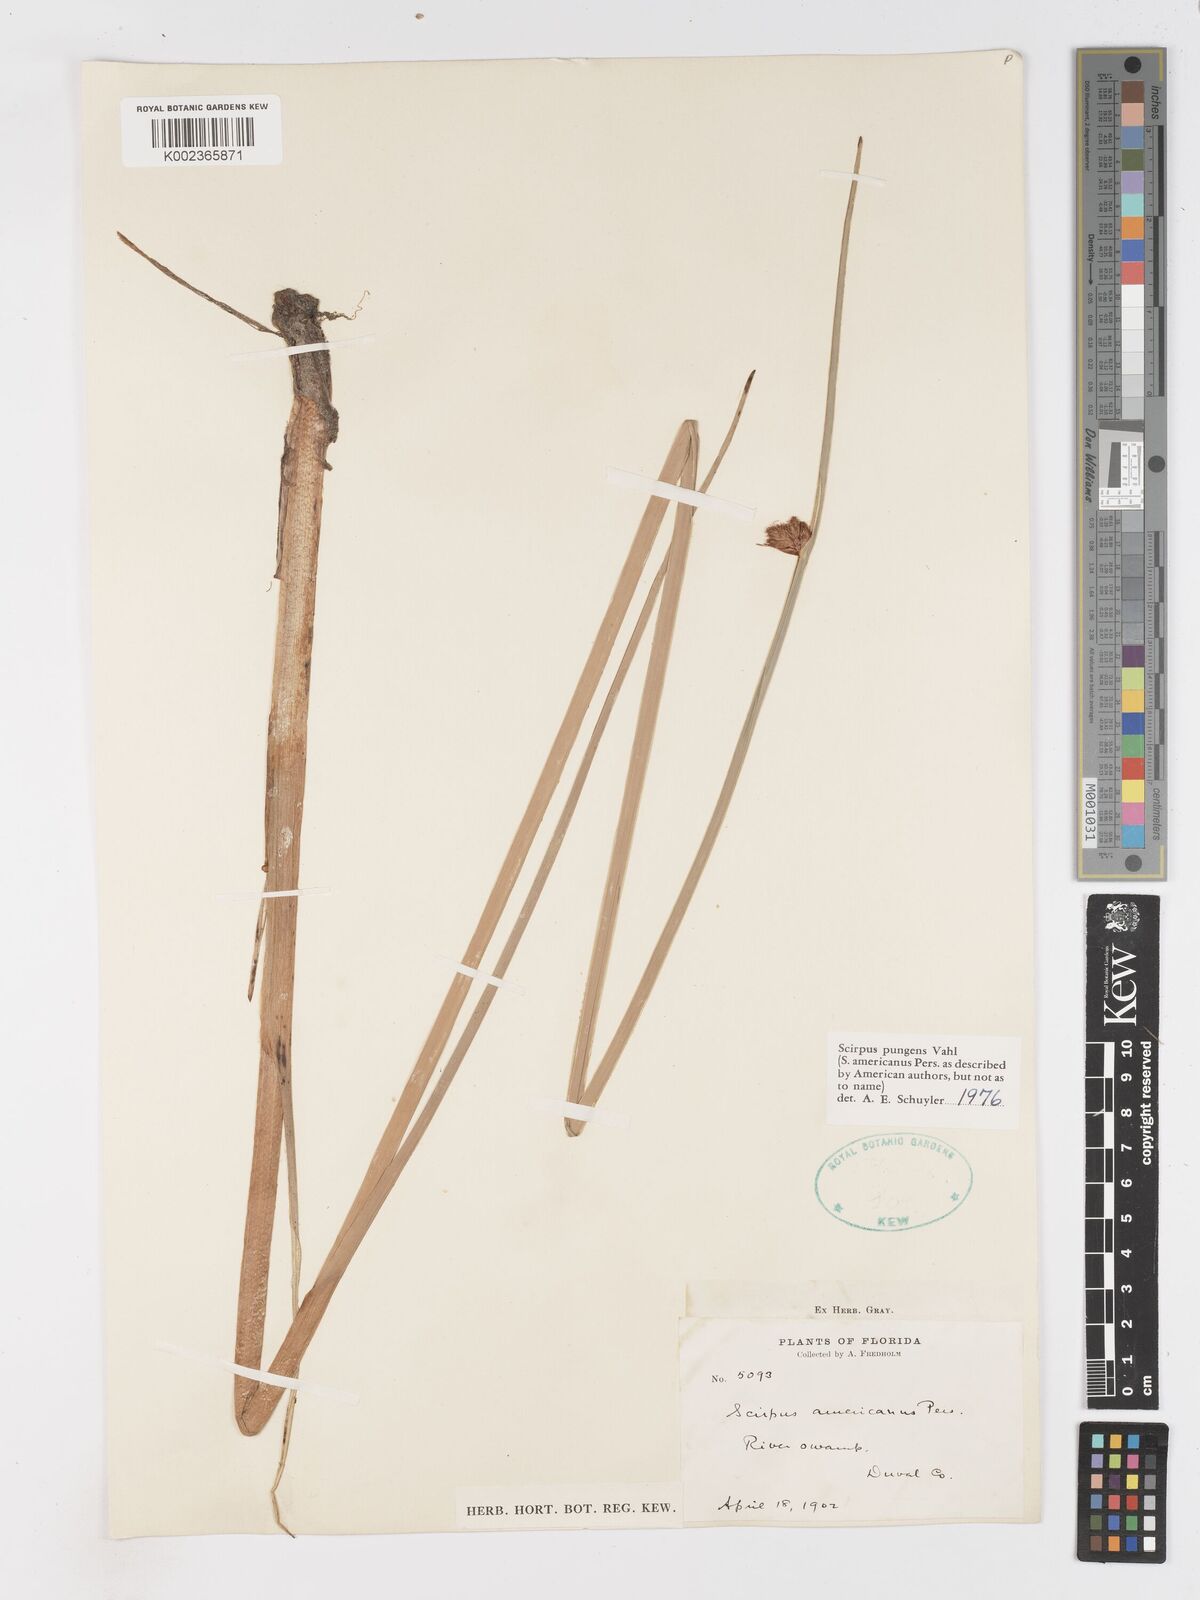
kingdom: Plantae
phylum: Tracheophyta
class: Liliopsida
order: Poales
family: Cyperaceae
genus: Schoenoplectus
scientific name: Schoenoplectus pungens
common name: Sharp club-rush
